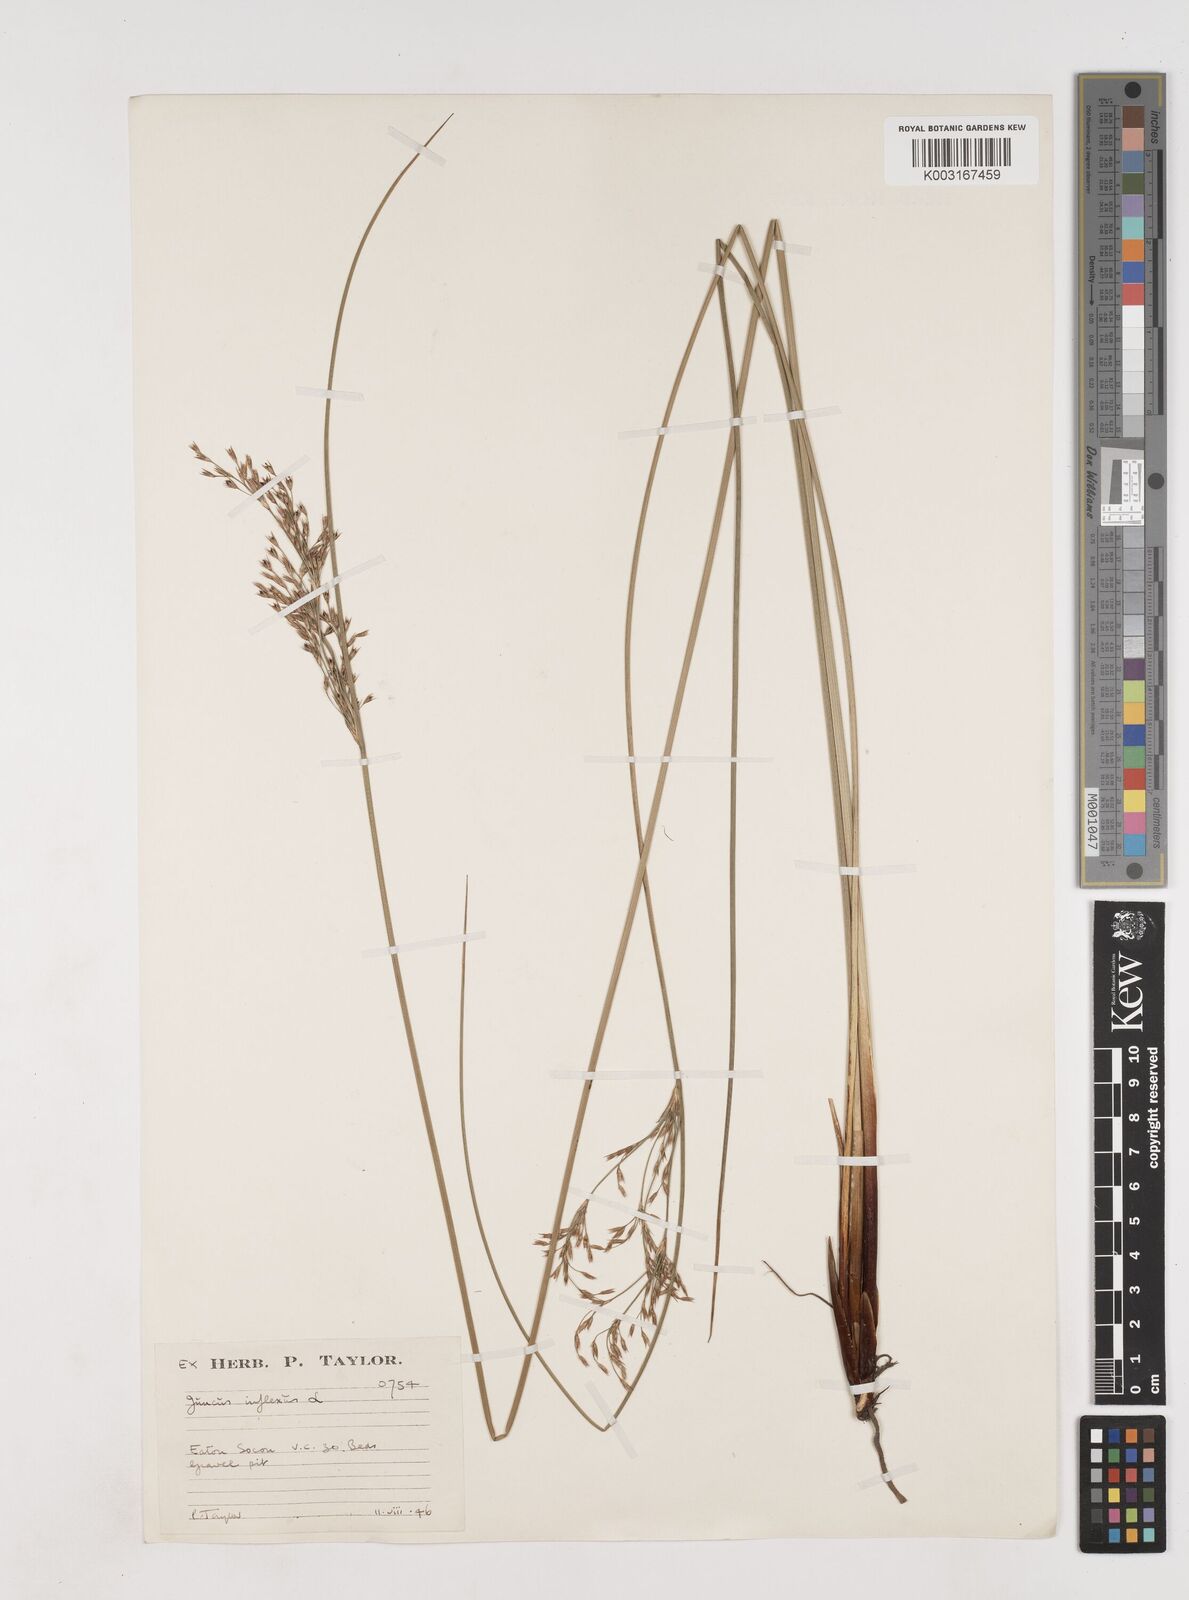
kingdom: Plantae
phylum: Tracheophyta
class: Liliopsida
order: Poales
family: Juncaceae
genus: Juncus
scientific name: Juncus inflexus
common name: Hard rush
